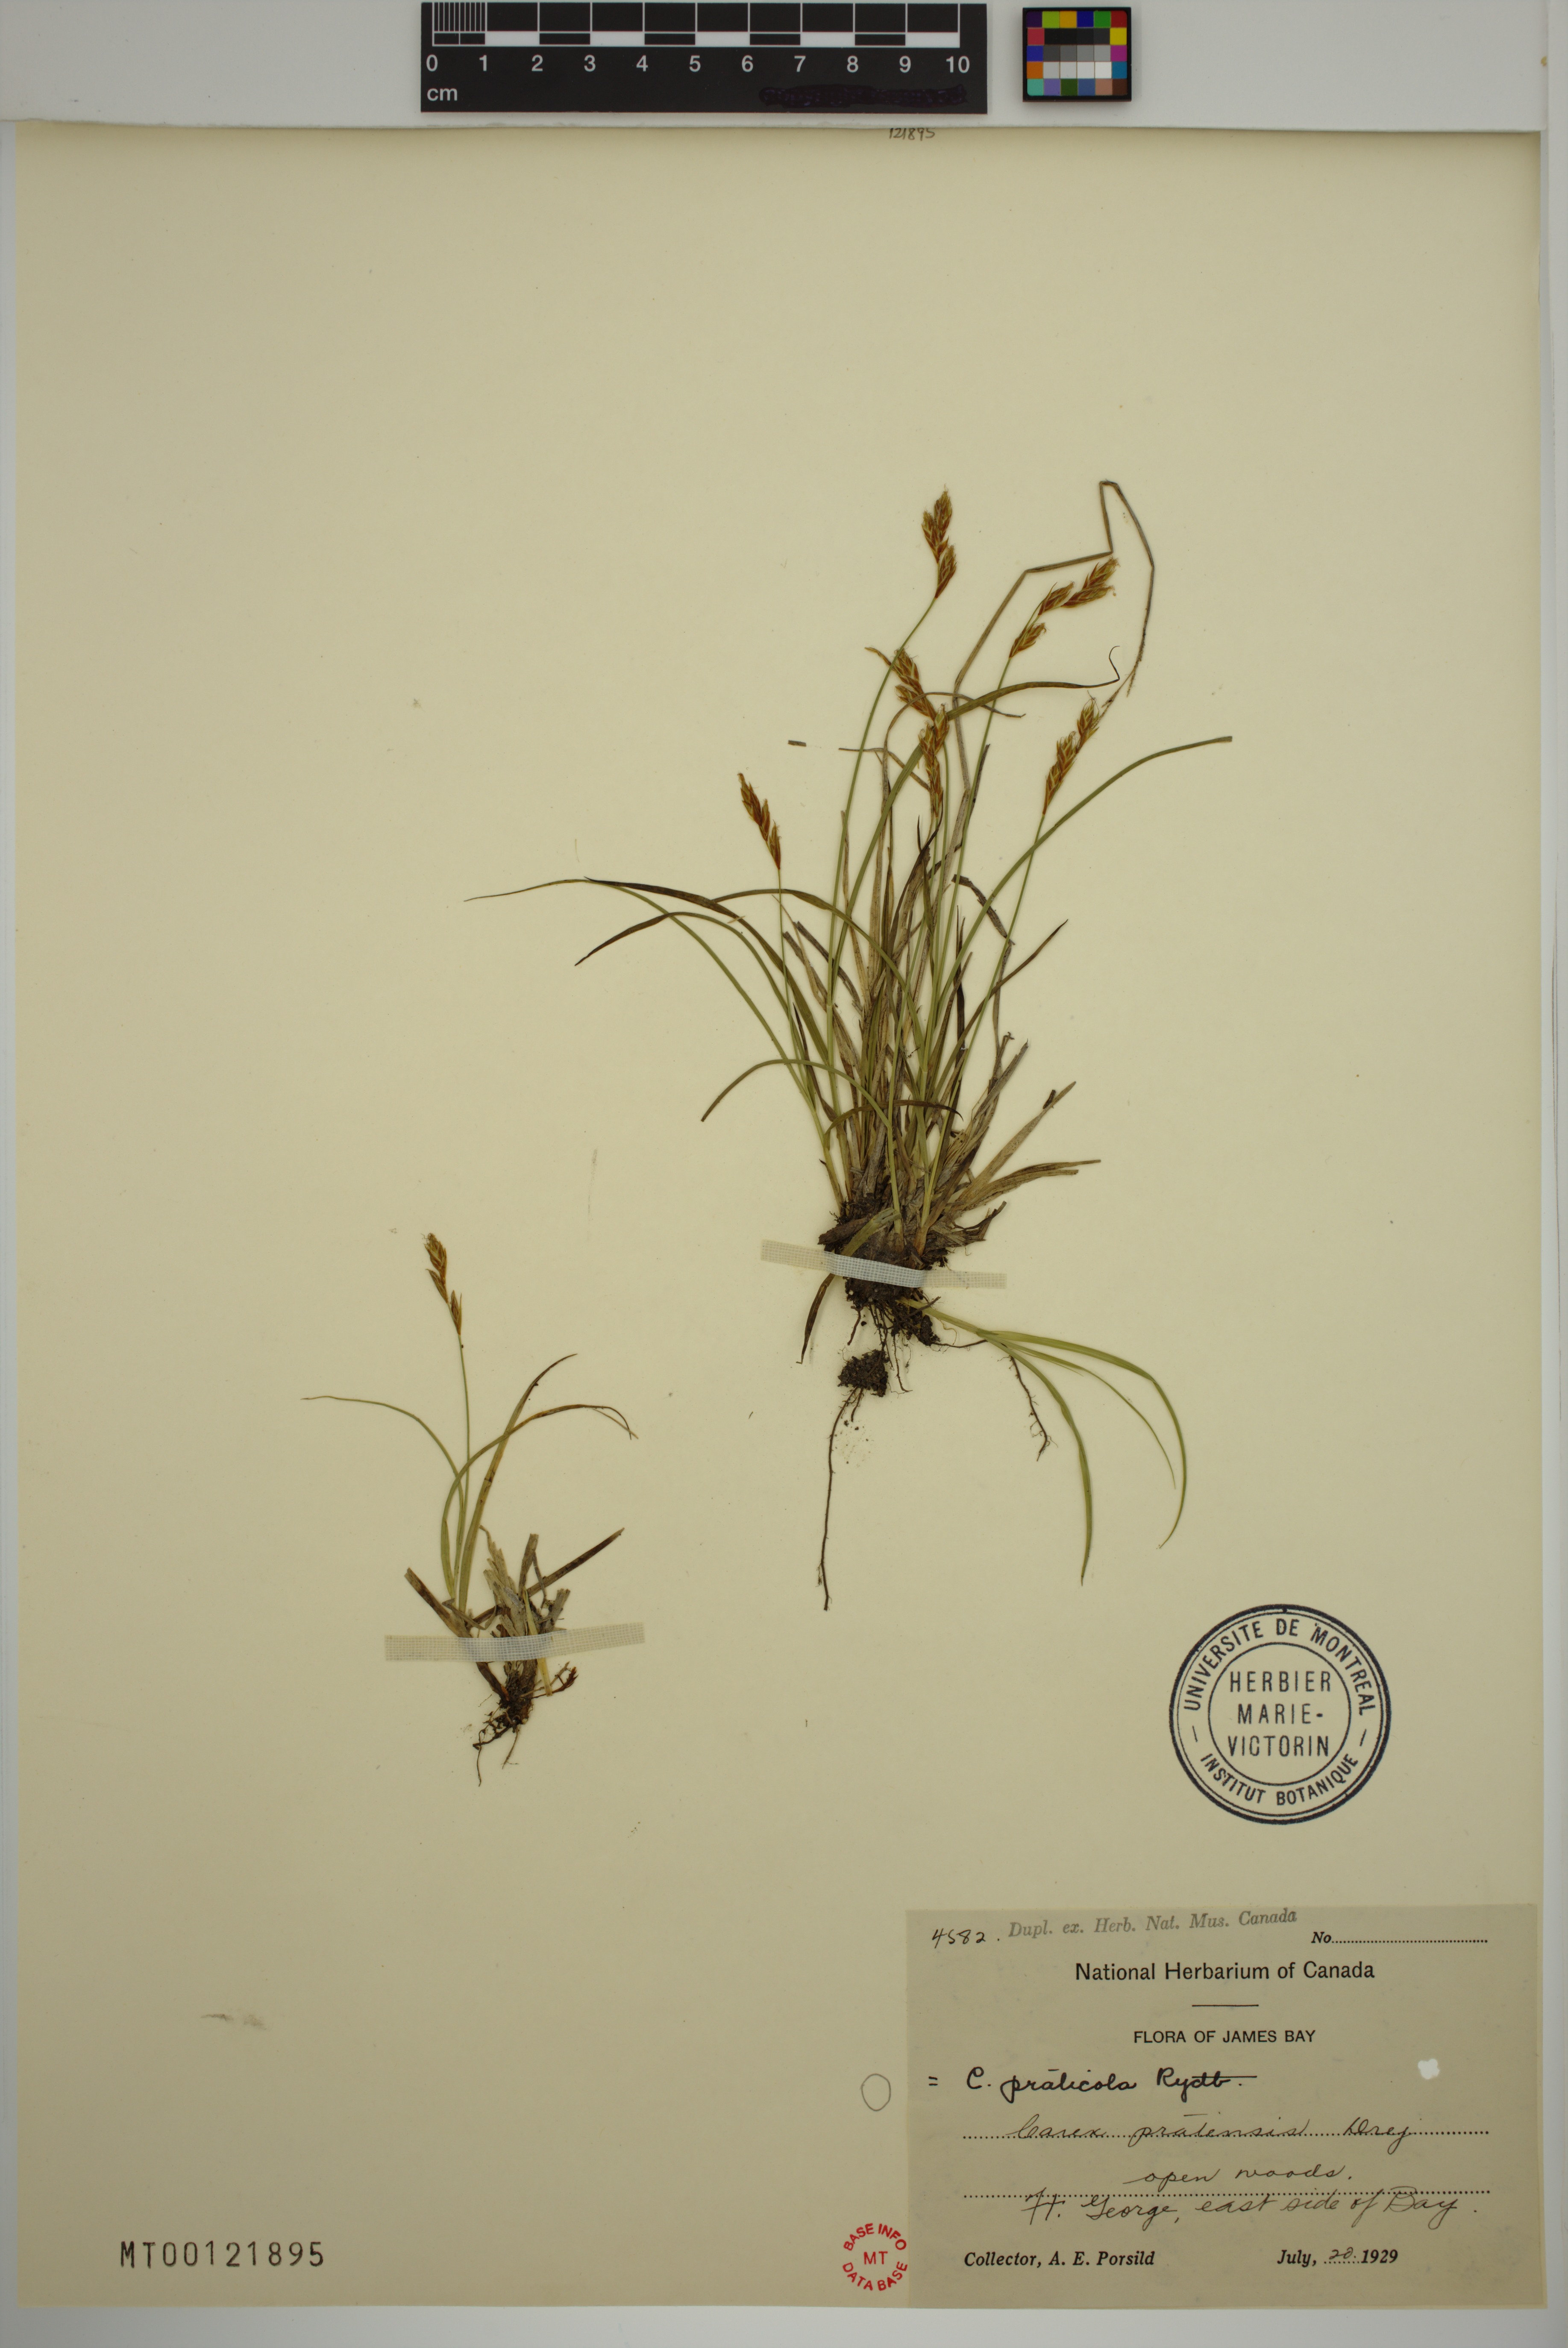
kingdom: Plantae
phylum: Tracheophyta
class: Liliopsida
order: Poales
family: Cyperaceae
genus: Carex
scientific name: Carex praticola
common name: Large-fruited oval sedge
